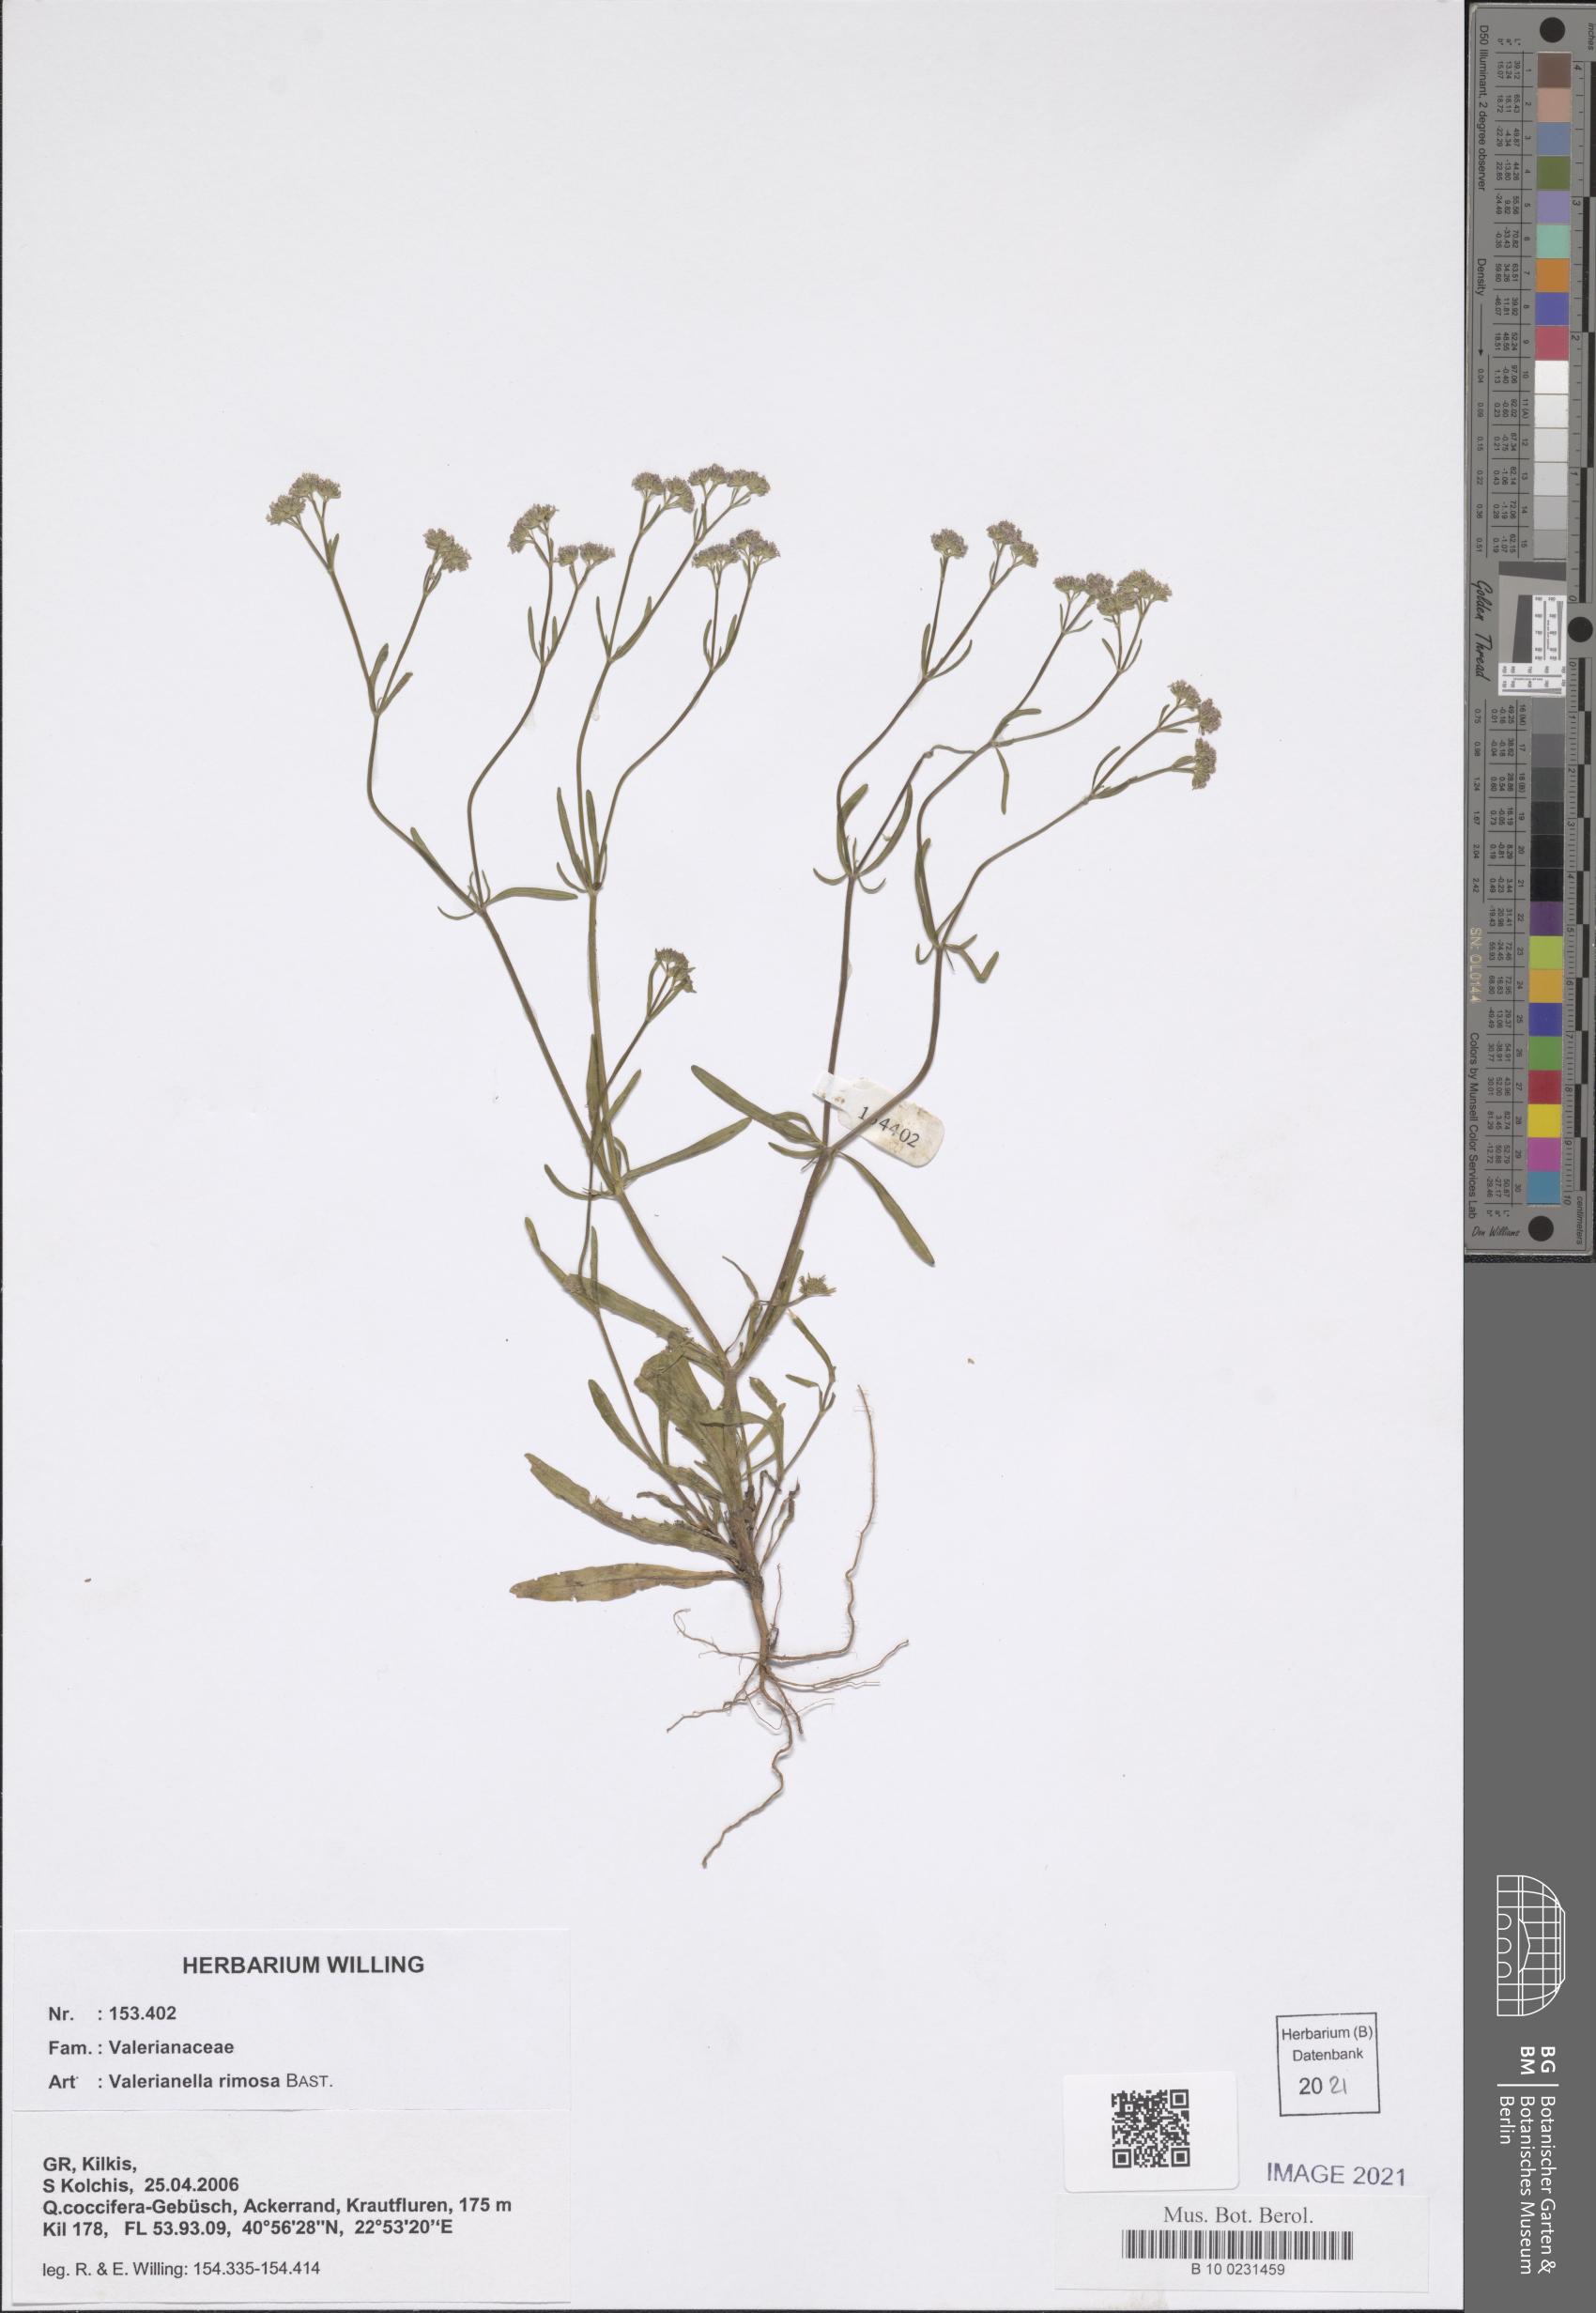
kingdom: Plantae
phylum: Tracheophyta
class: Magnoliopsida
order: Dipsacales
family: Caprifoliaceae
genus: Valerianella
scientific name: Valerianella rimosa
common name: Broad-fruited cornsalad
